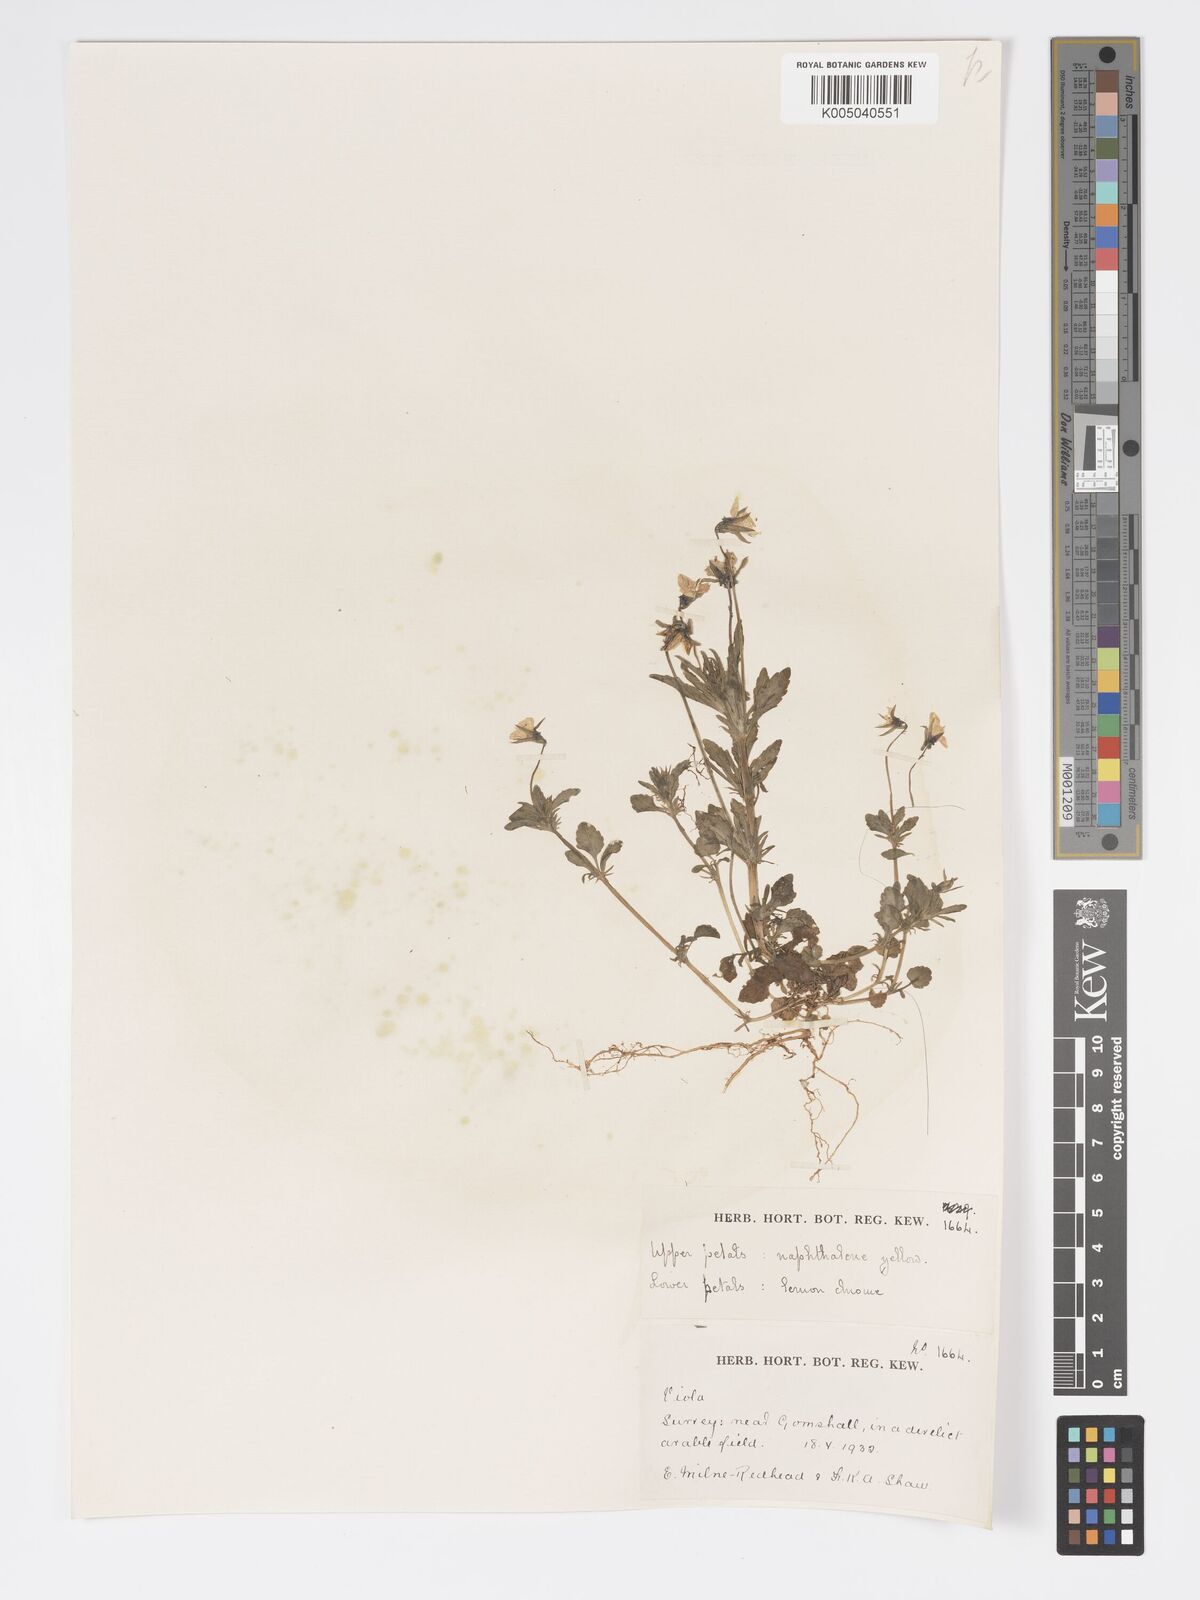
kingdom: Plantae
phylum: Tracheophyta
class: Magnoliopsida
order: Malpighiales
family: Violaceae
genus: Viola
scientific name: Viola
